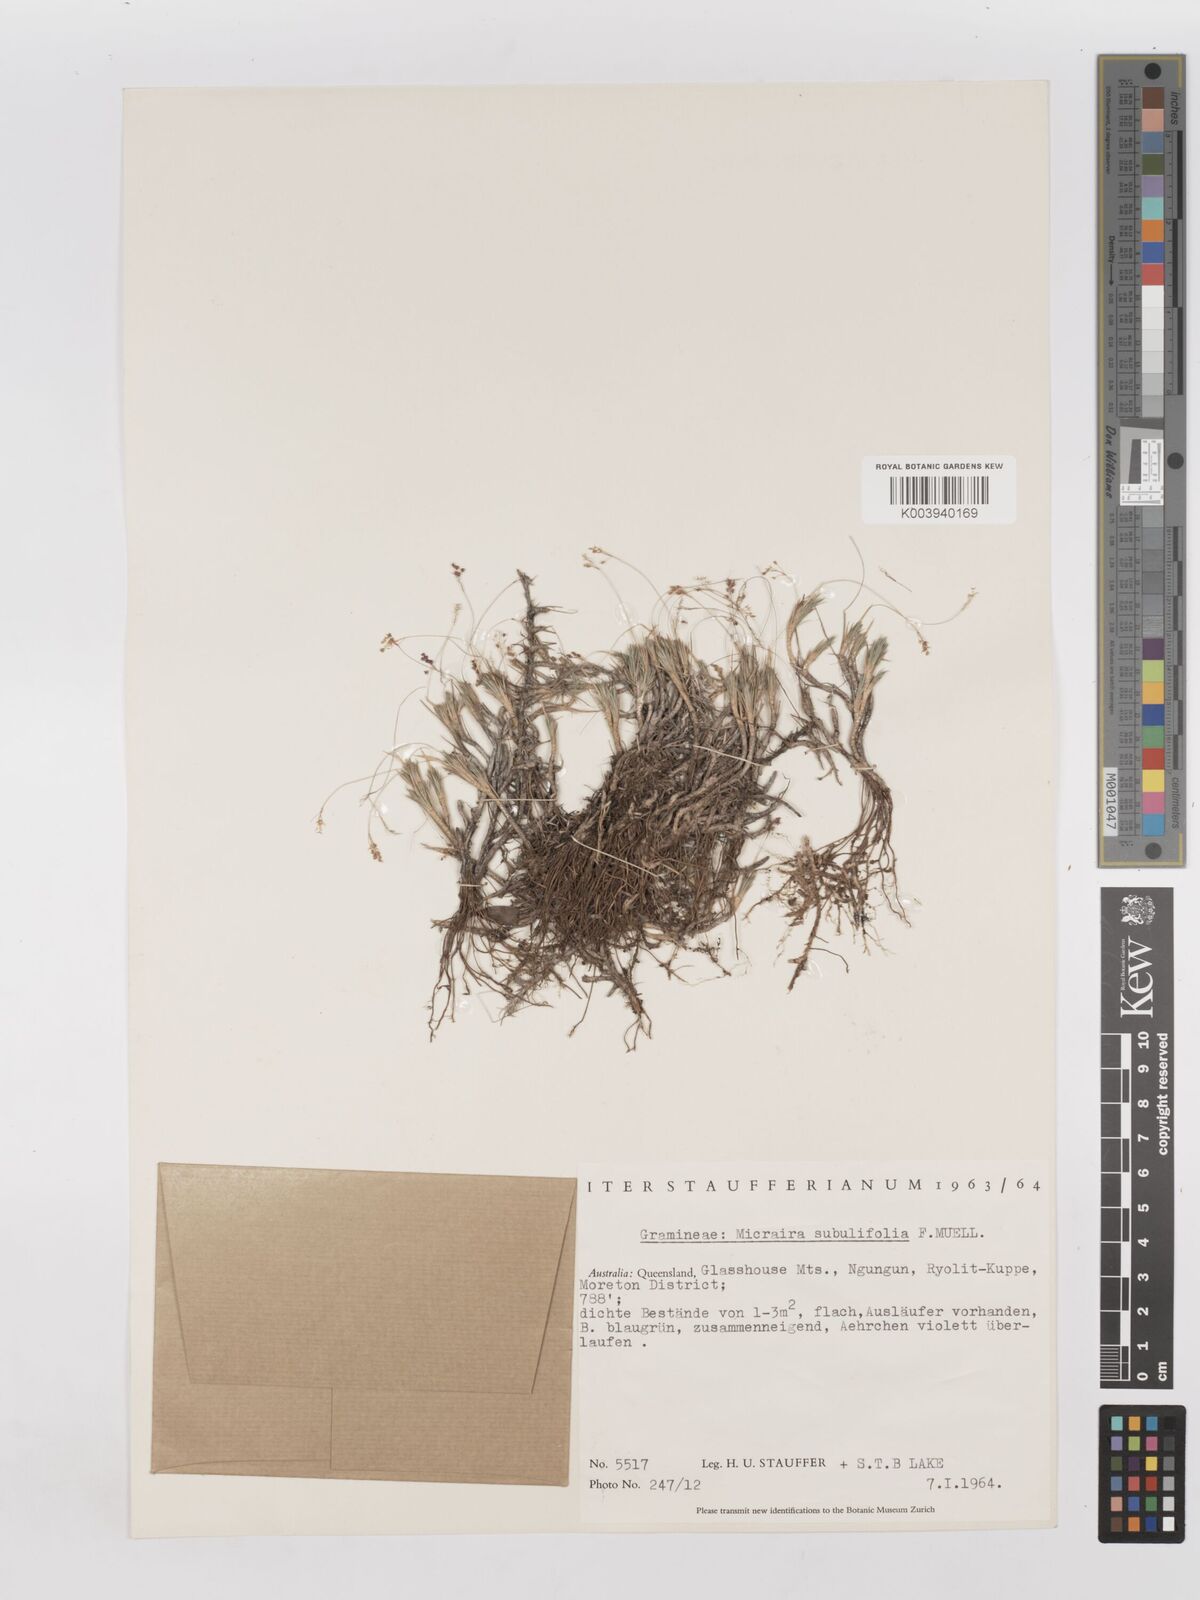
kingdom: Plantae
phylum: Tracheophyta
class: Liliopsida
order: Poales
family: Poaceae
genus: Micraira
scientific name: Micraira subulifolia
